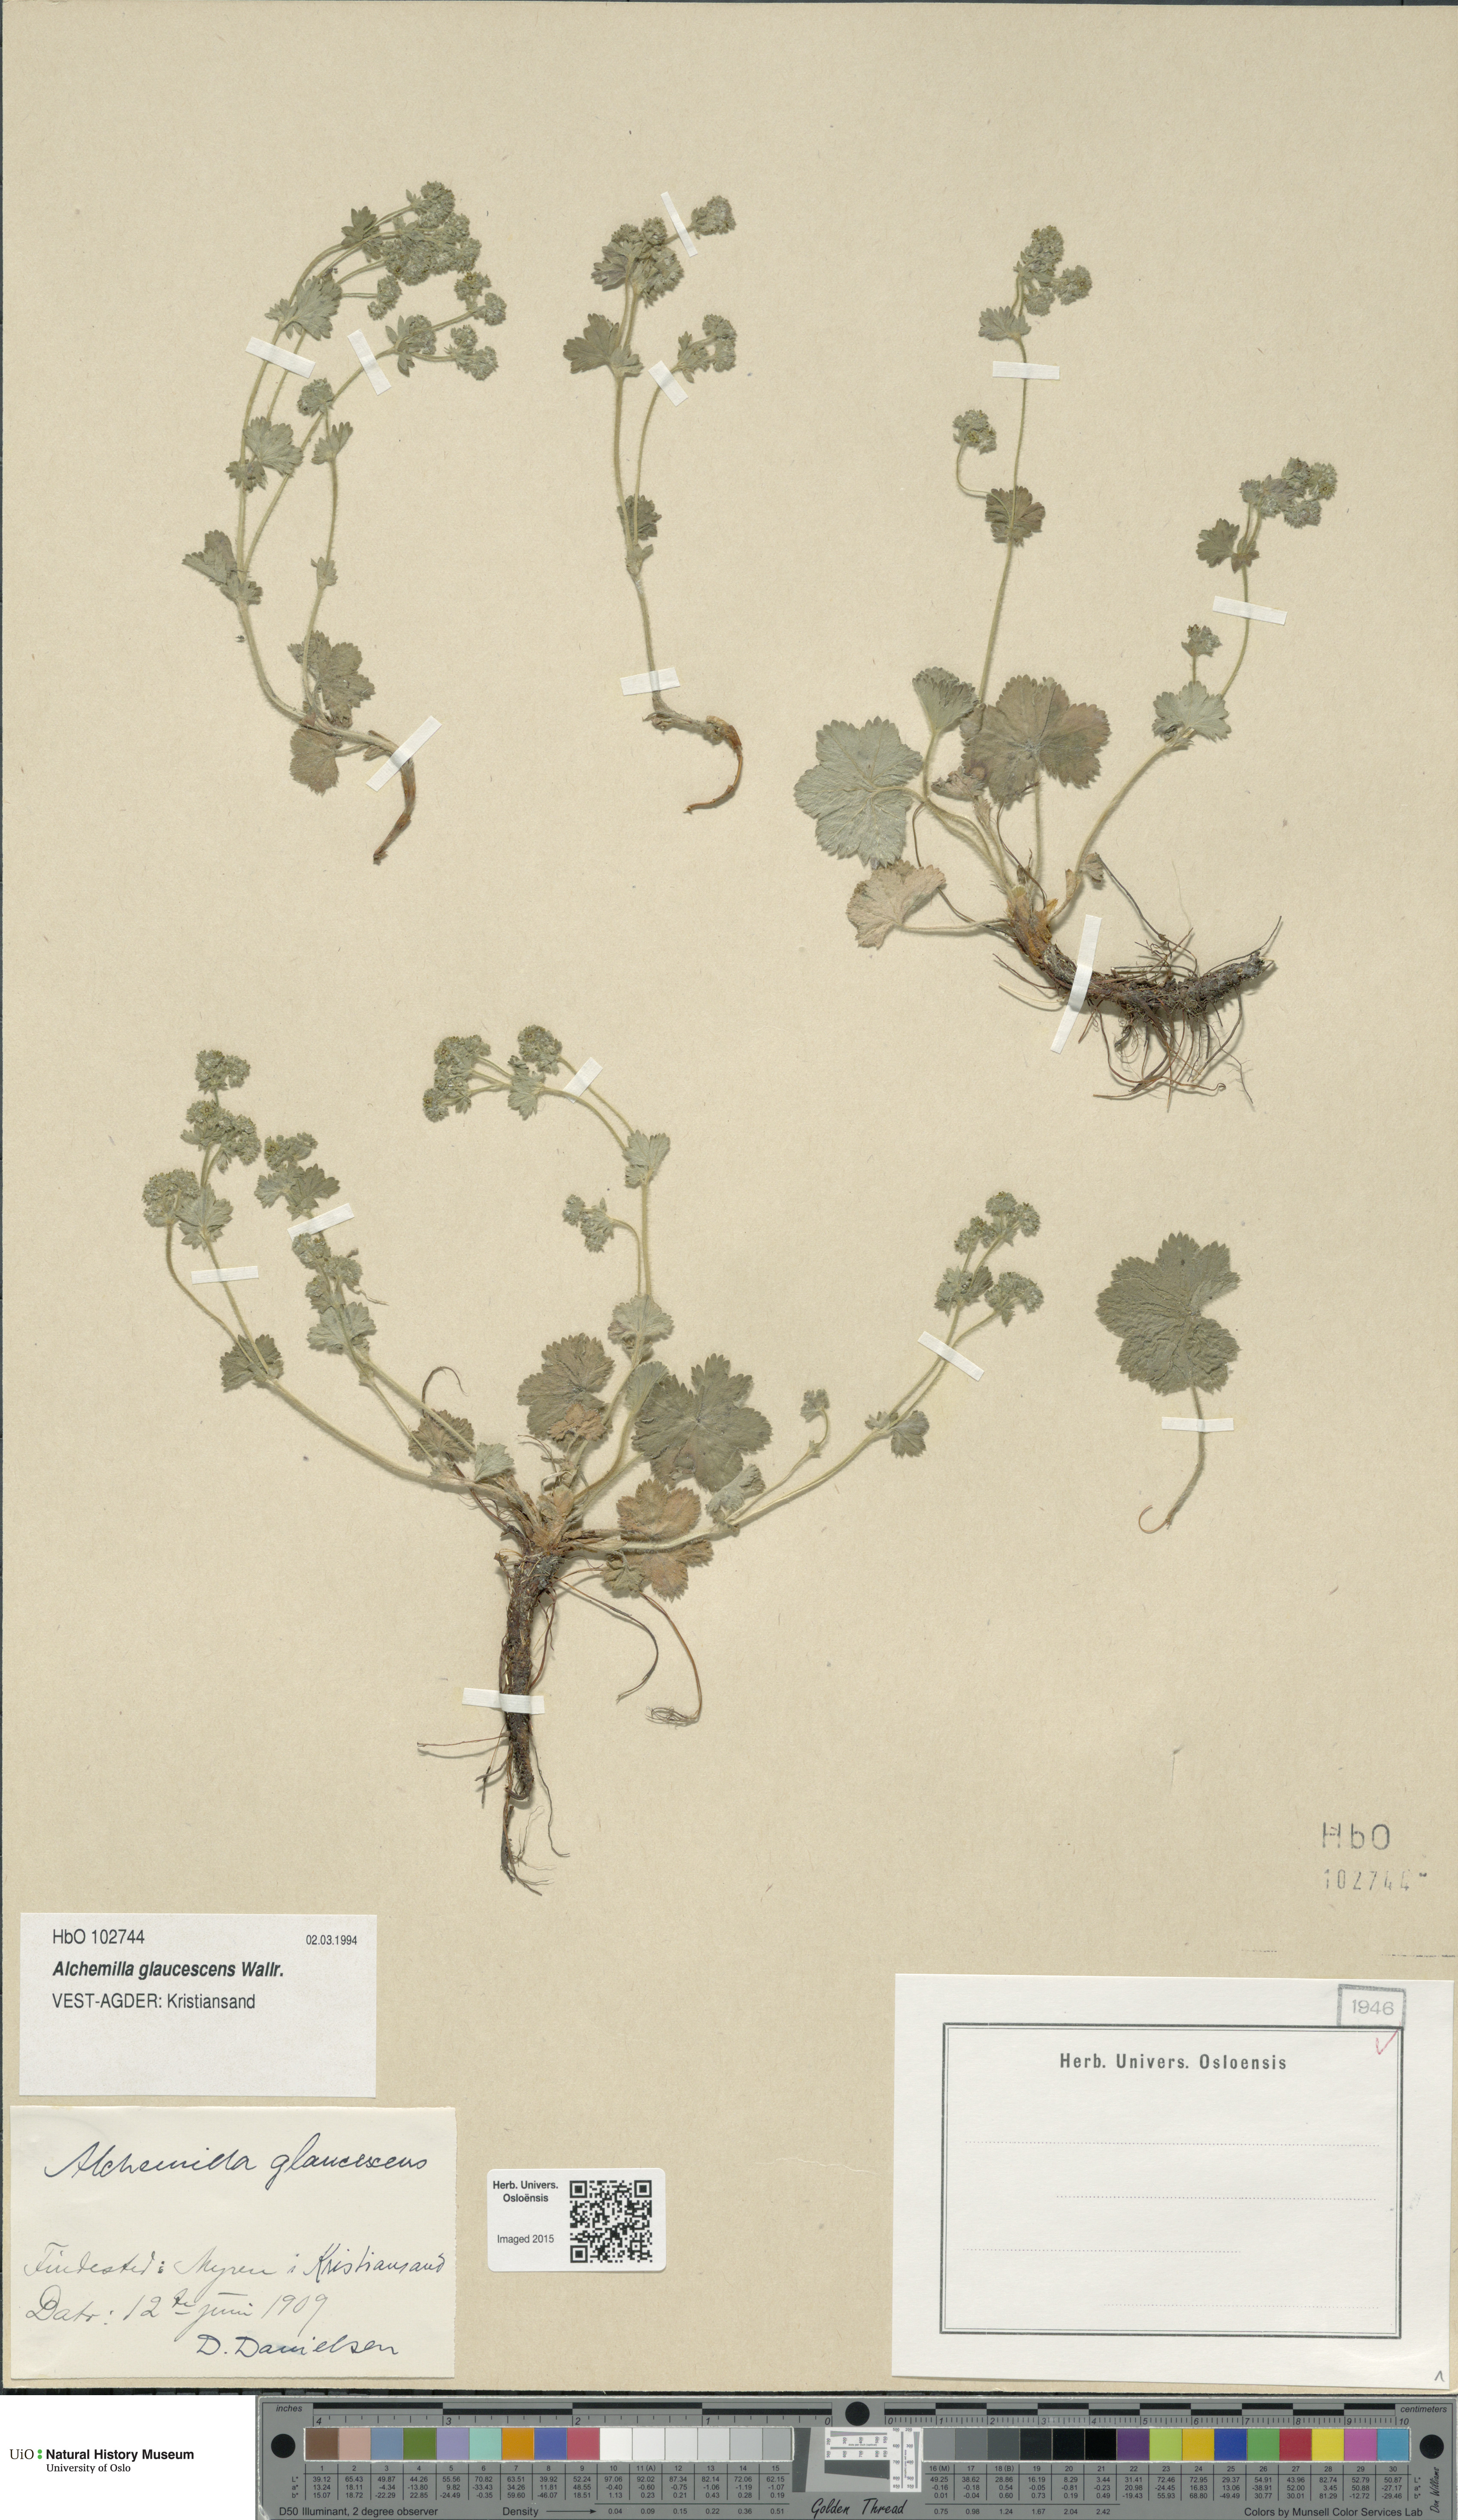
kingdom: Plantae
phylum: Tracheophyta
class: Magnoliopsida
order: Rosales
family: Rosaceae
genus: Alchemilla
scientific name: Alchemilla glaucescens
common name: Silky lady's mantle
